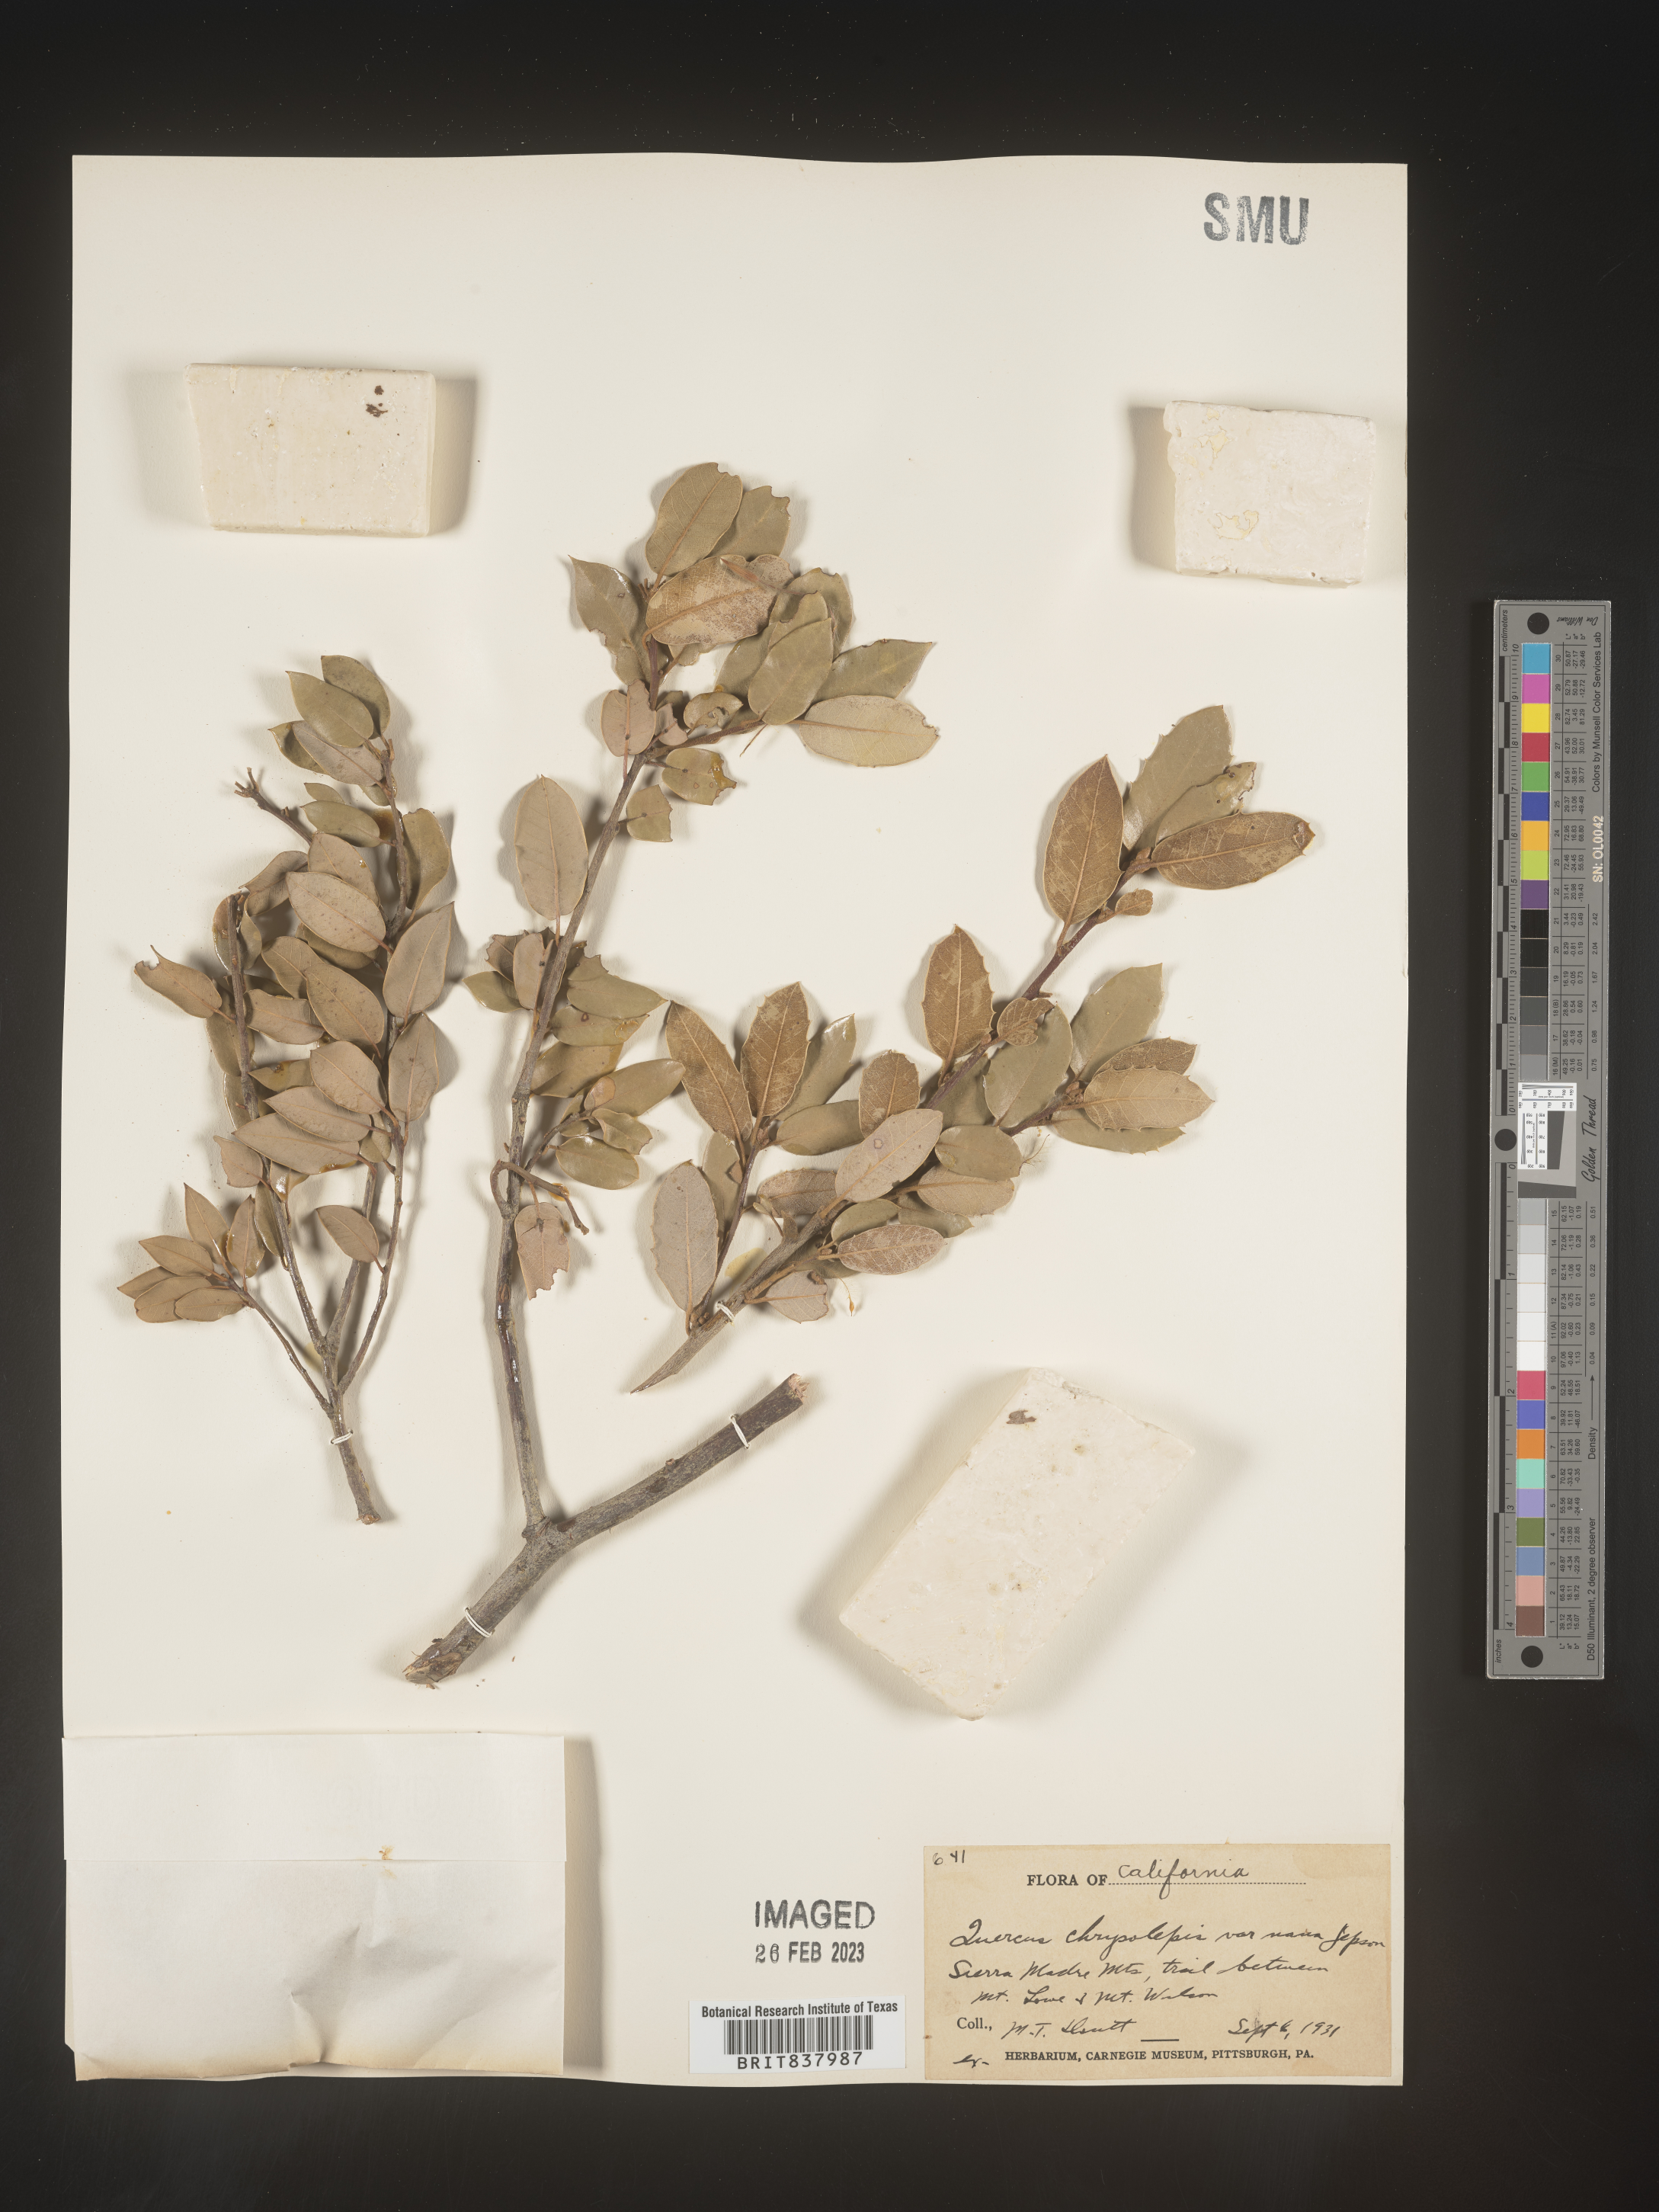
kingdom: Plantae
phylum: Tracheophyta
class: Magnoliopsida
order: Fagales
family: Fagaceae
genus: Quercus
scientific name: Quercus chrysolepis
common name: Canyon live oak
